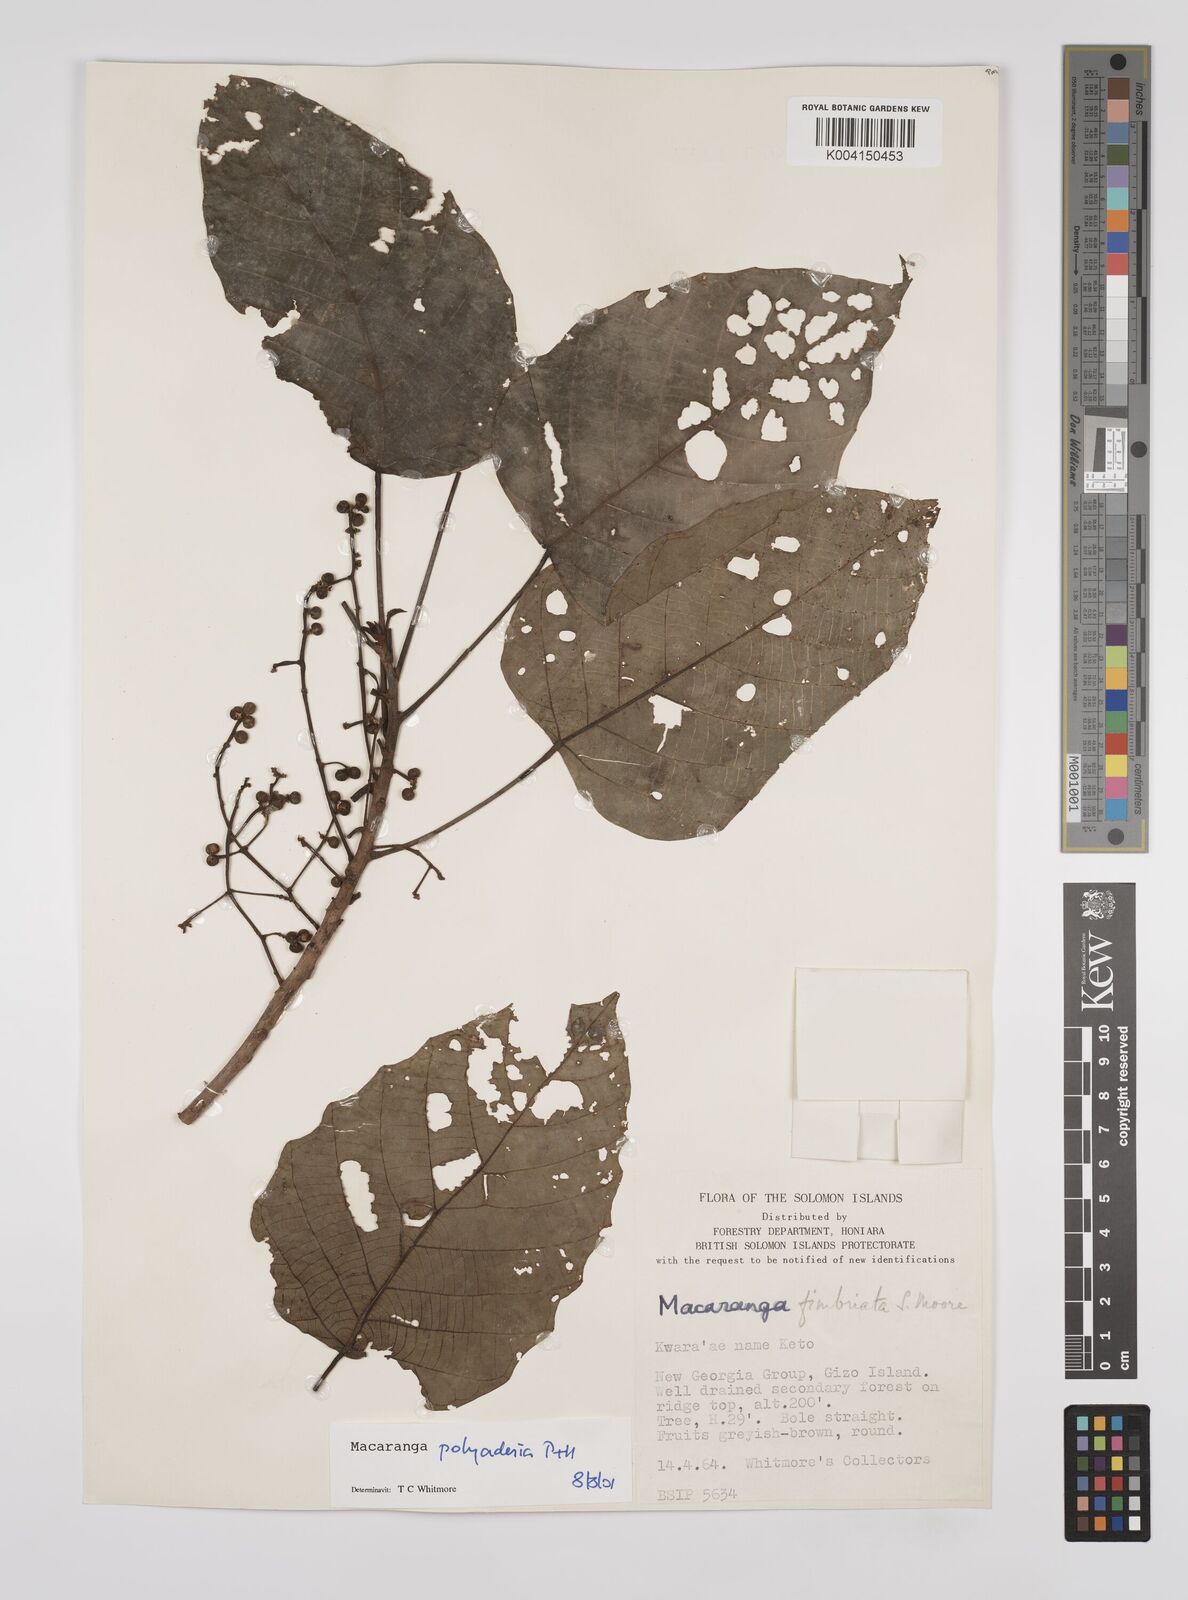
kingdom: Plantae
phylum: Tracheophyta
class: Magnoliopsida
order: Malpighiales
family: Euphorbiaceae
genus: Macaranga
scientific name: Macaranga polyadenia
